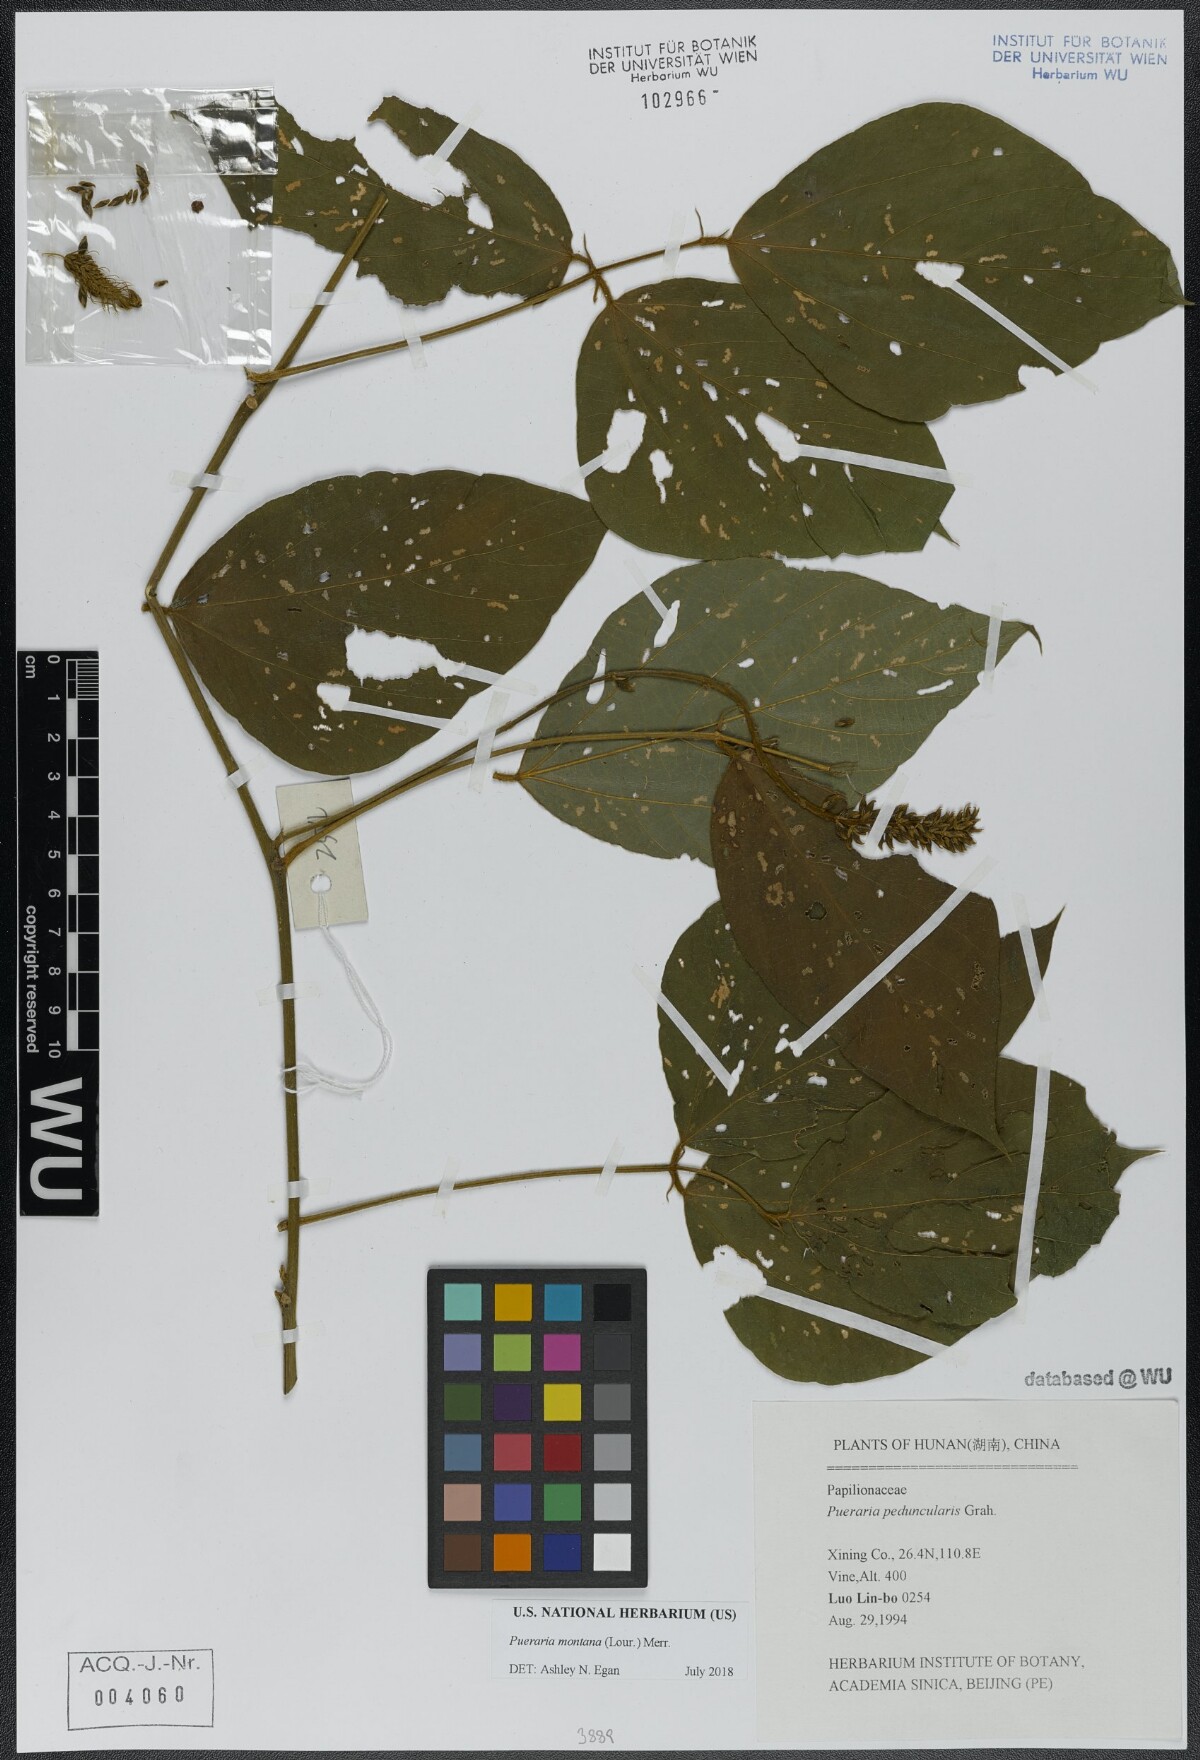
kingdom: Plantae
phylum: Tracheophyta
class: Magnoliopsida
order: Fabales
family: Fabaceae
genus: Pueraria
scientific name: Pueraria montana
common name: Kudzu
